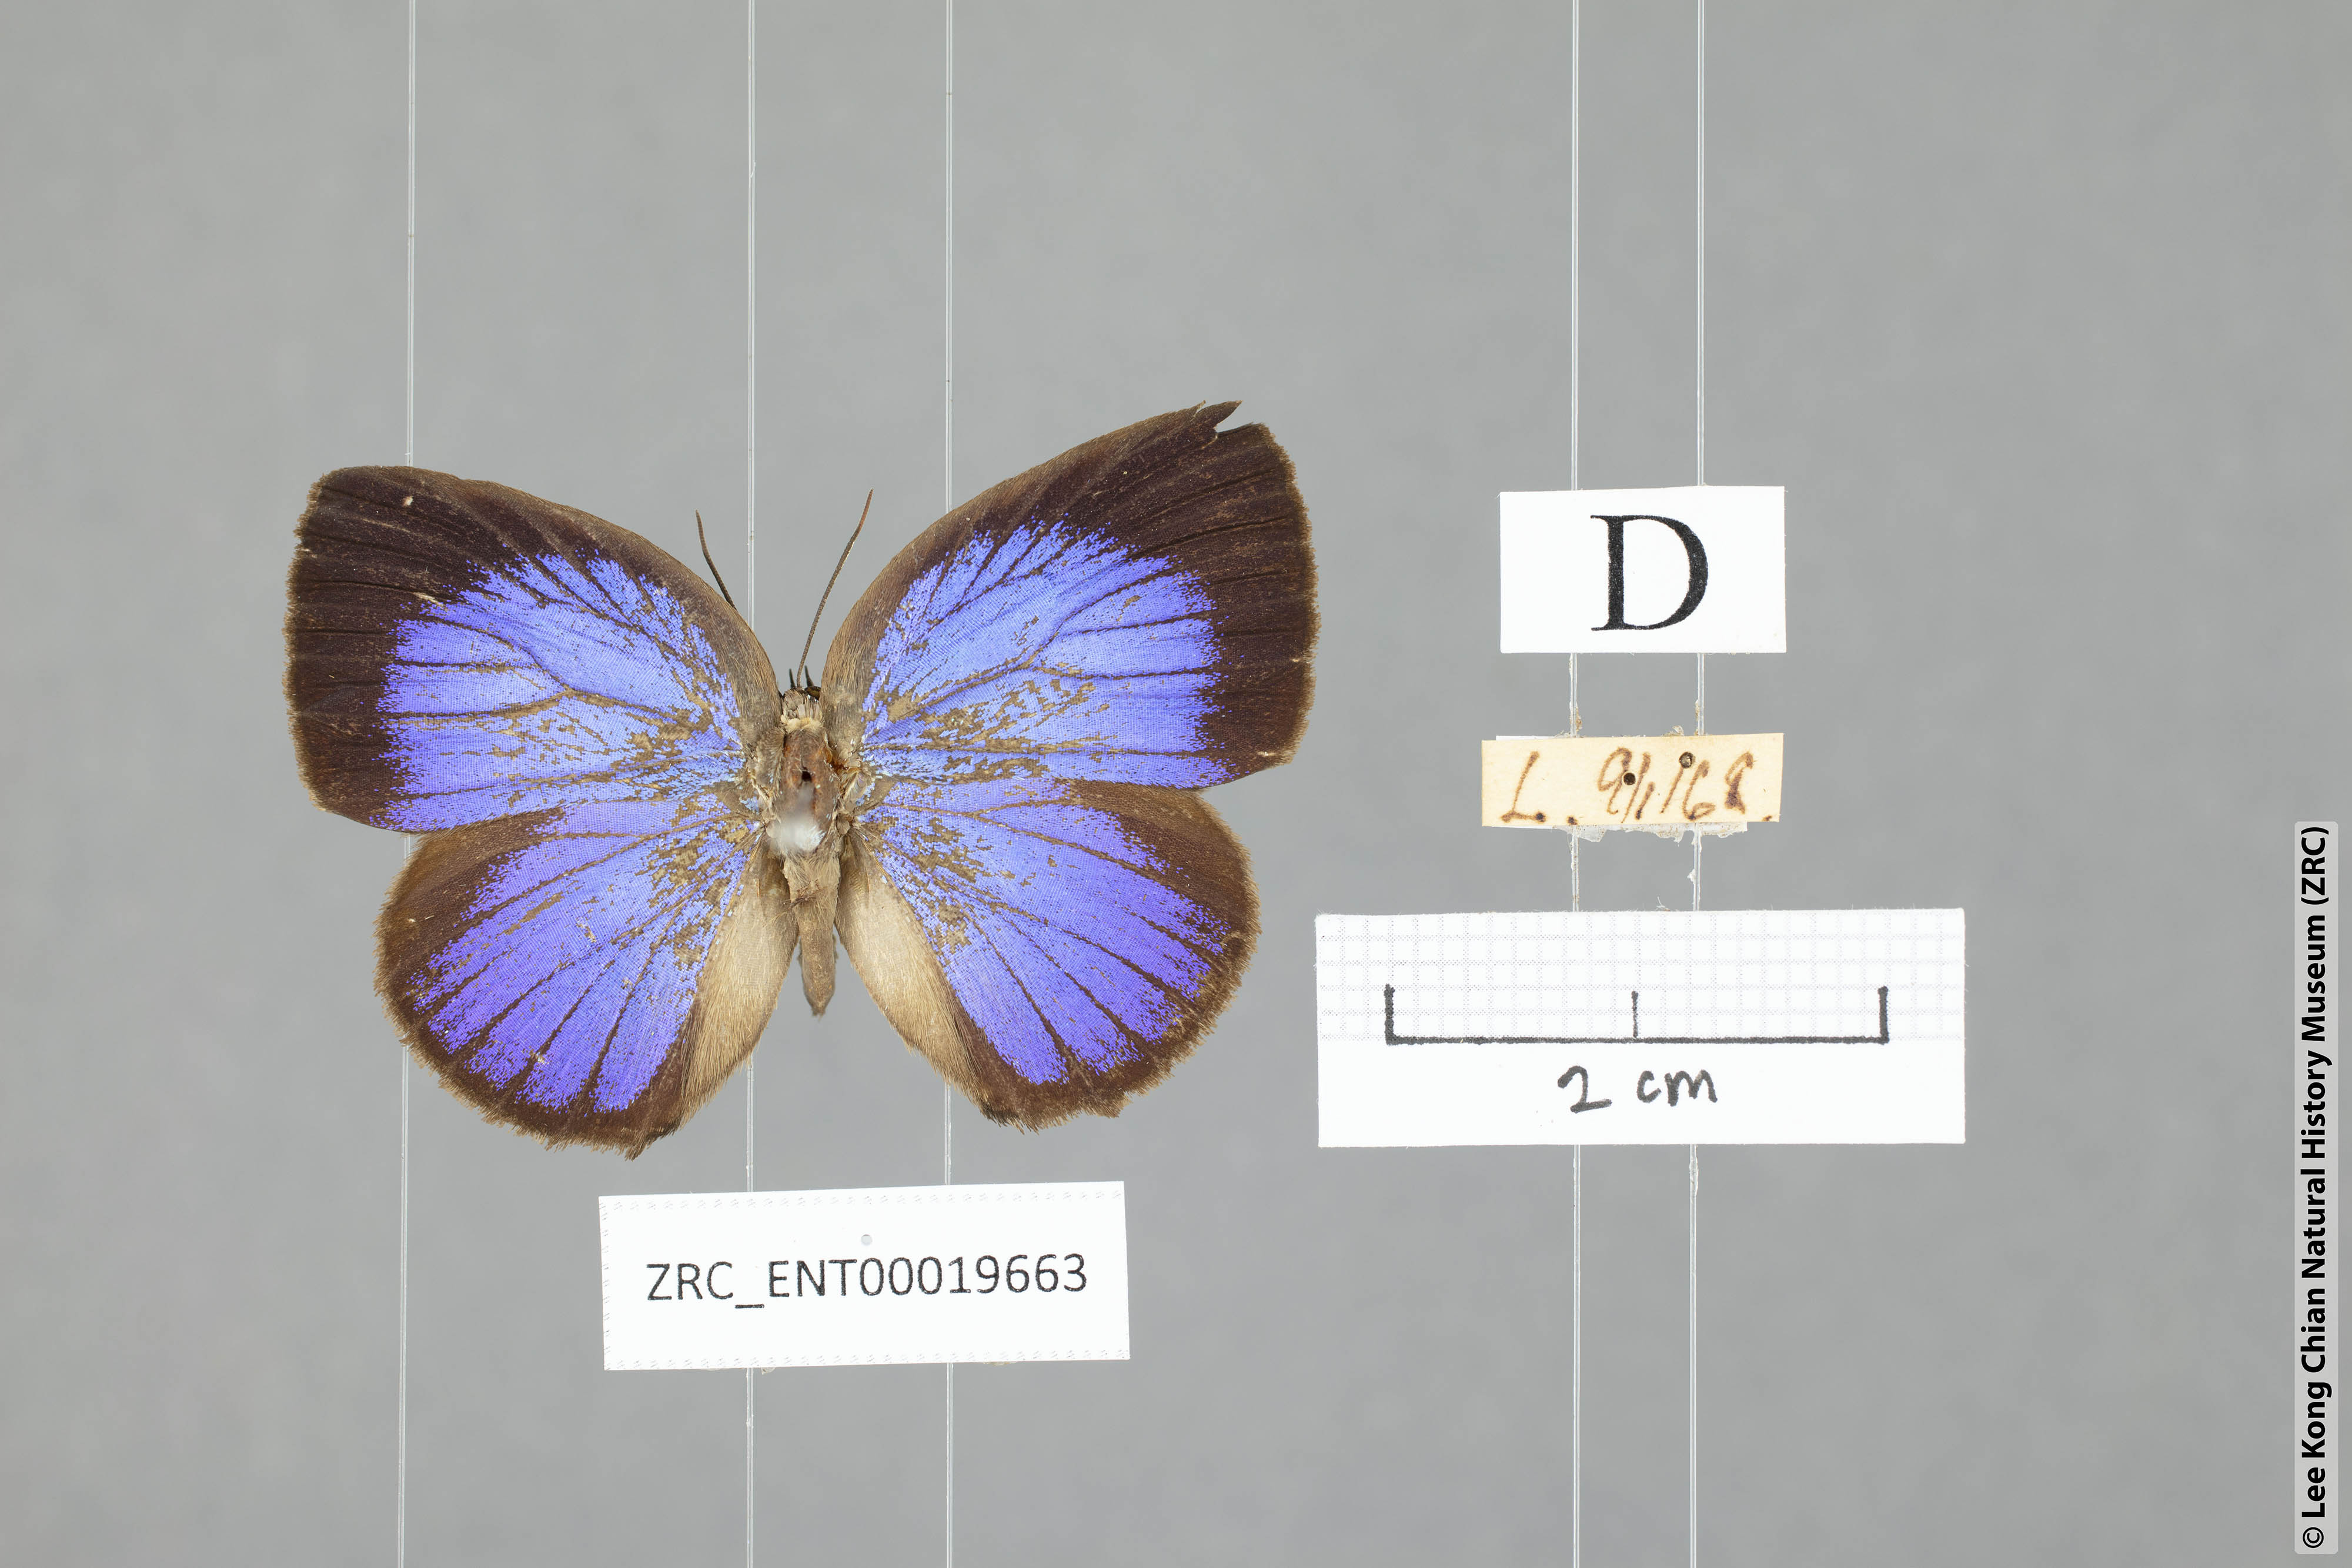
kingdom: Animalia
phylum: Arthropoda
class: Insecta
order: Lepidoptera
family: Lycaenidae
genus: Arhopala
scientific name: Arhopala moolaina
